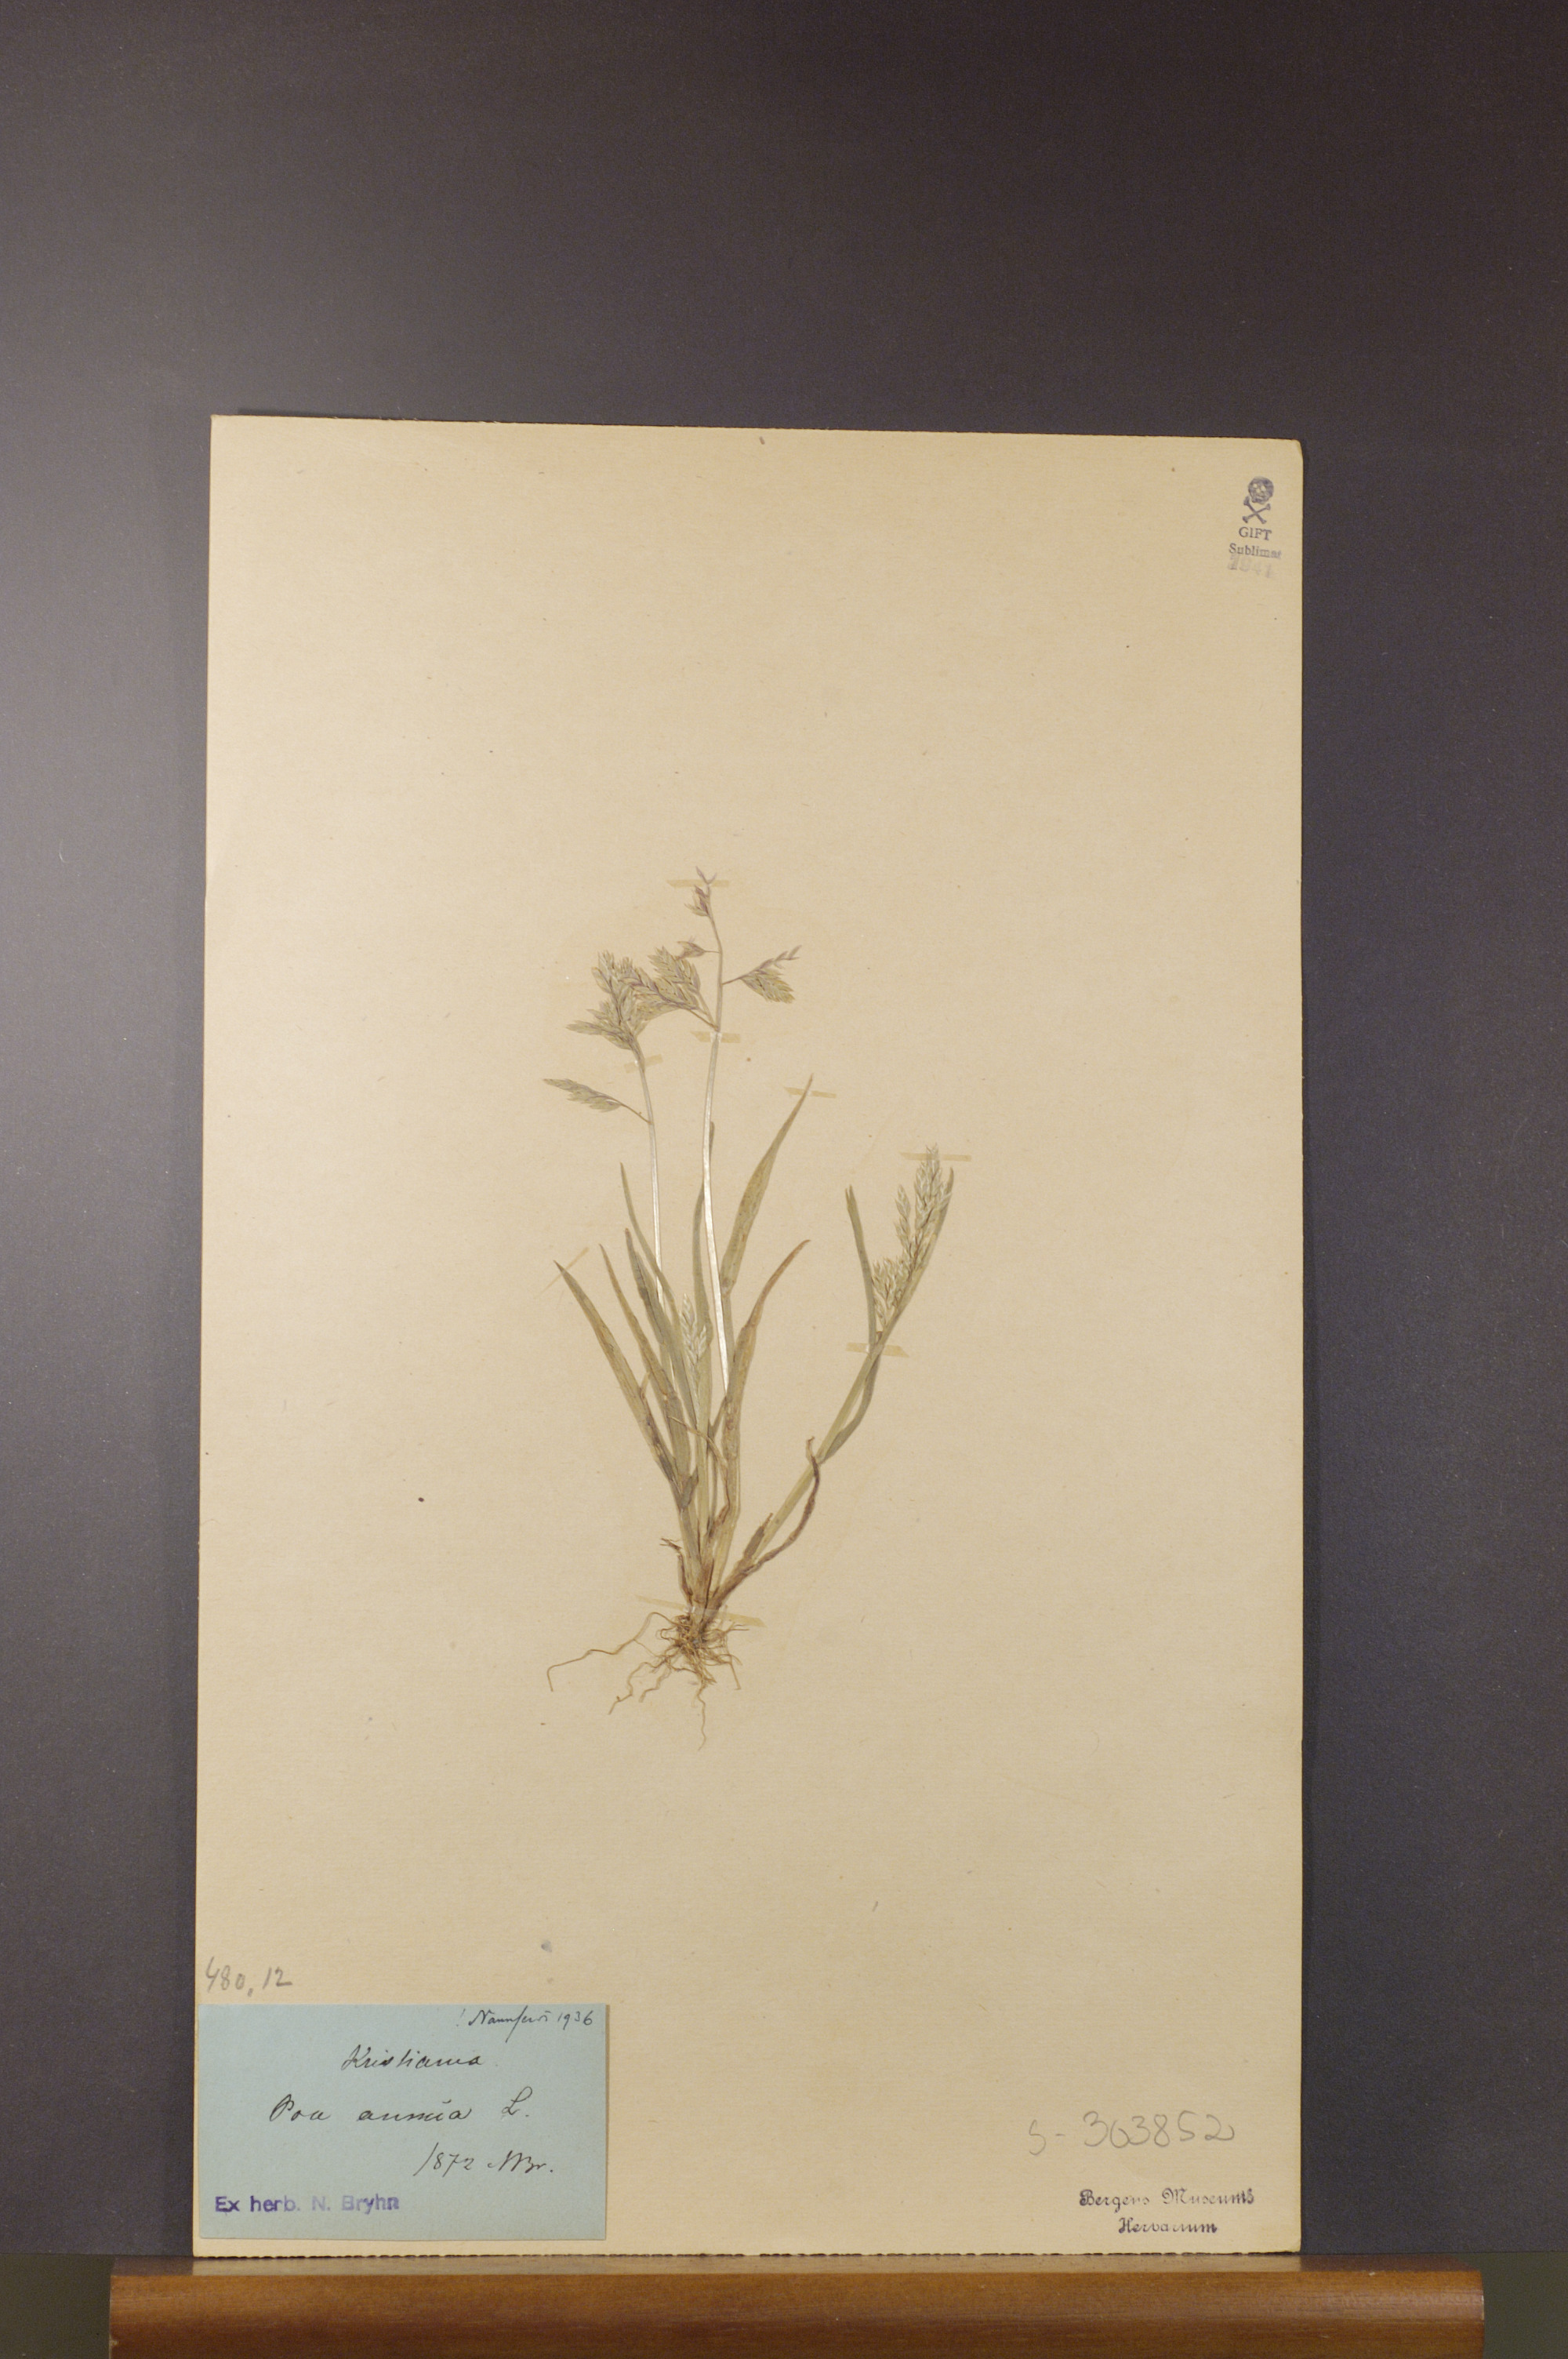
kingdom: Plantae
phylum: Tracheophyta
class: Liliopsida
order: Poales
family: Poaceae
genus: Poa
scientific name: Poa annua
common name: Annual bluegrass
